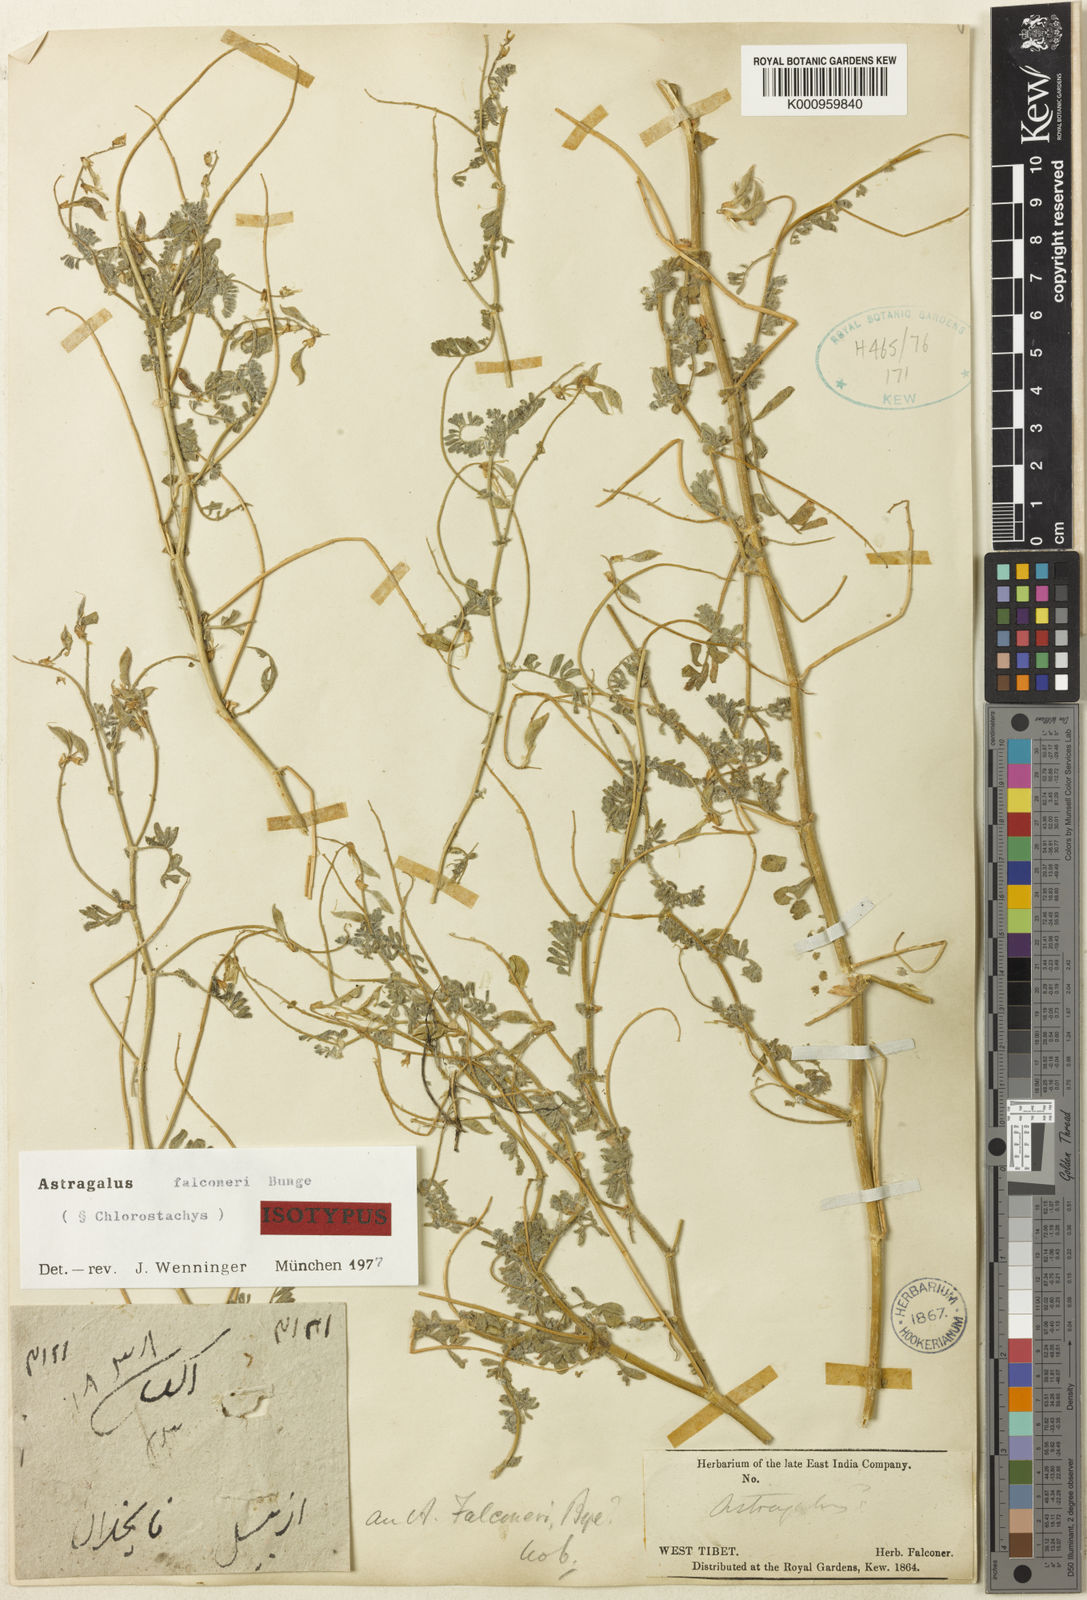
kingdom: Plantae
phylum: Tracheophyta
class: Magnoliopsida
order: Fabales
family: Fabaceae
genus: Astragalus
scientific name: Astragalus
